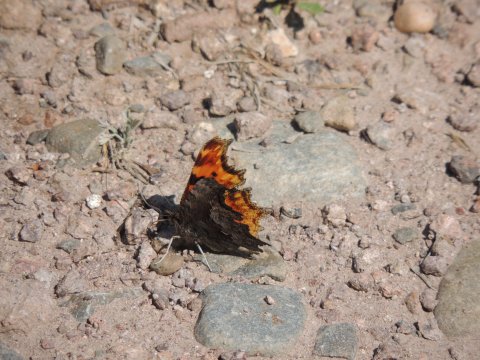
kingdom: Animalia
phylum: Arthropoda
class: Insecta
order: Lepidoptera
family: Nymphalidae
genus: Polygonia
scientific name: Polygonia gracilis
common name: Hoary Comma
